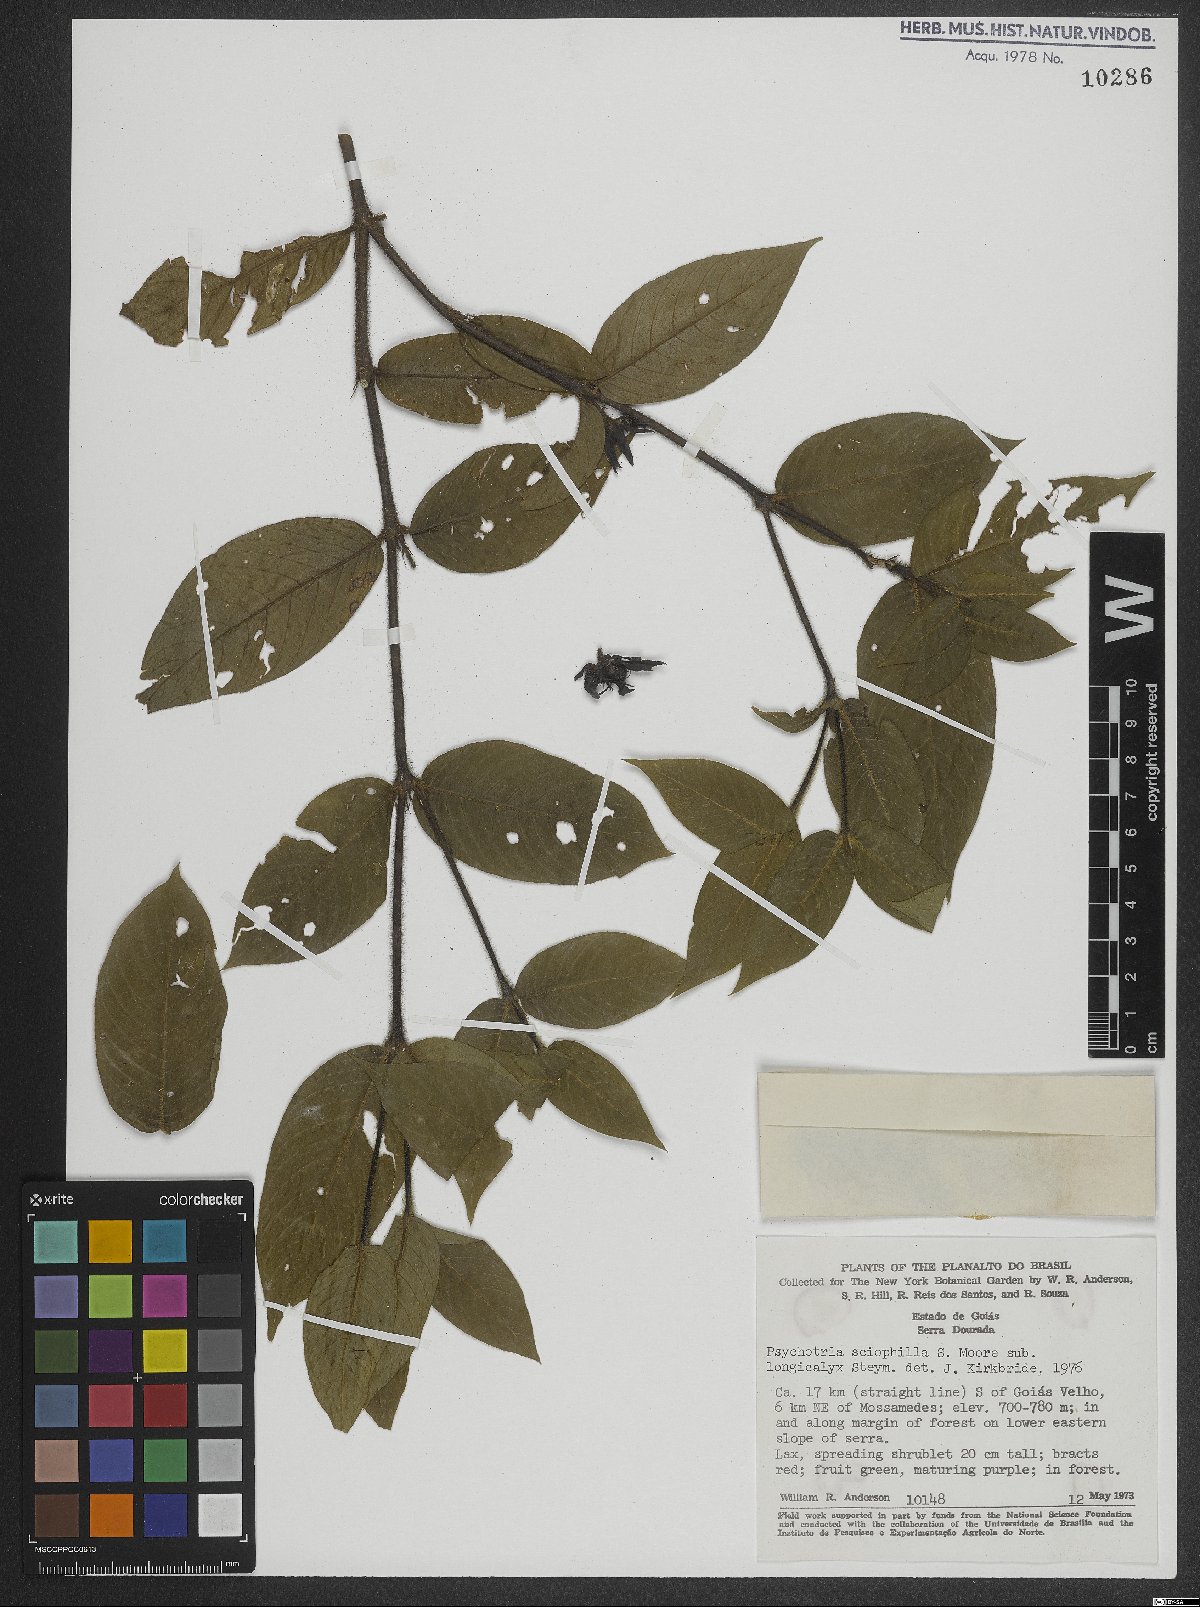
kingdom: Plantae
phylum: Tracheophyta
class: Magnoliopsida
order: Gentianales
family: Rubiaceae
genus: Palicourea
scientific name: Palicourea trichophora
